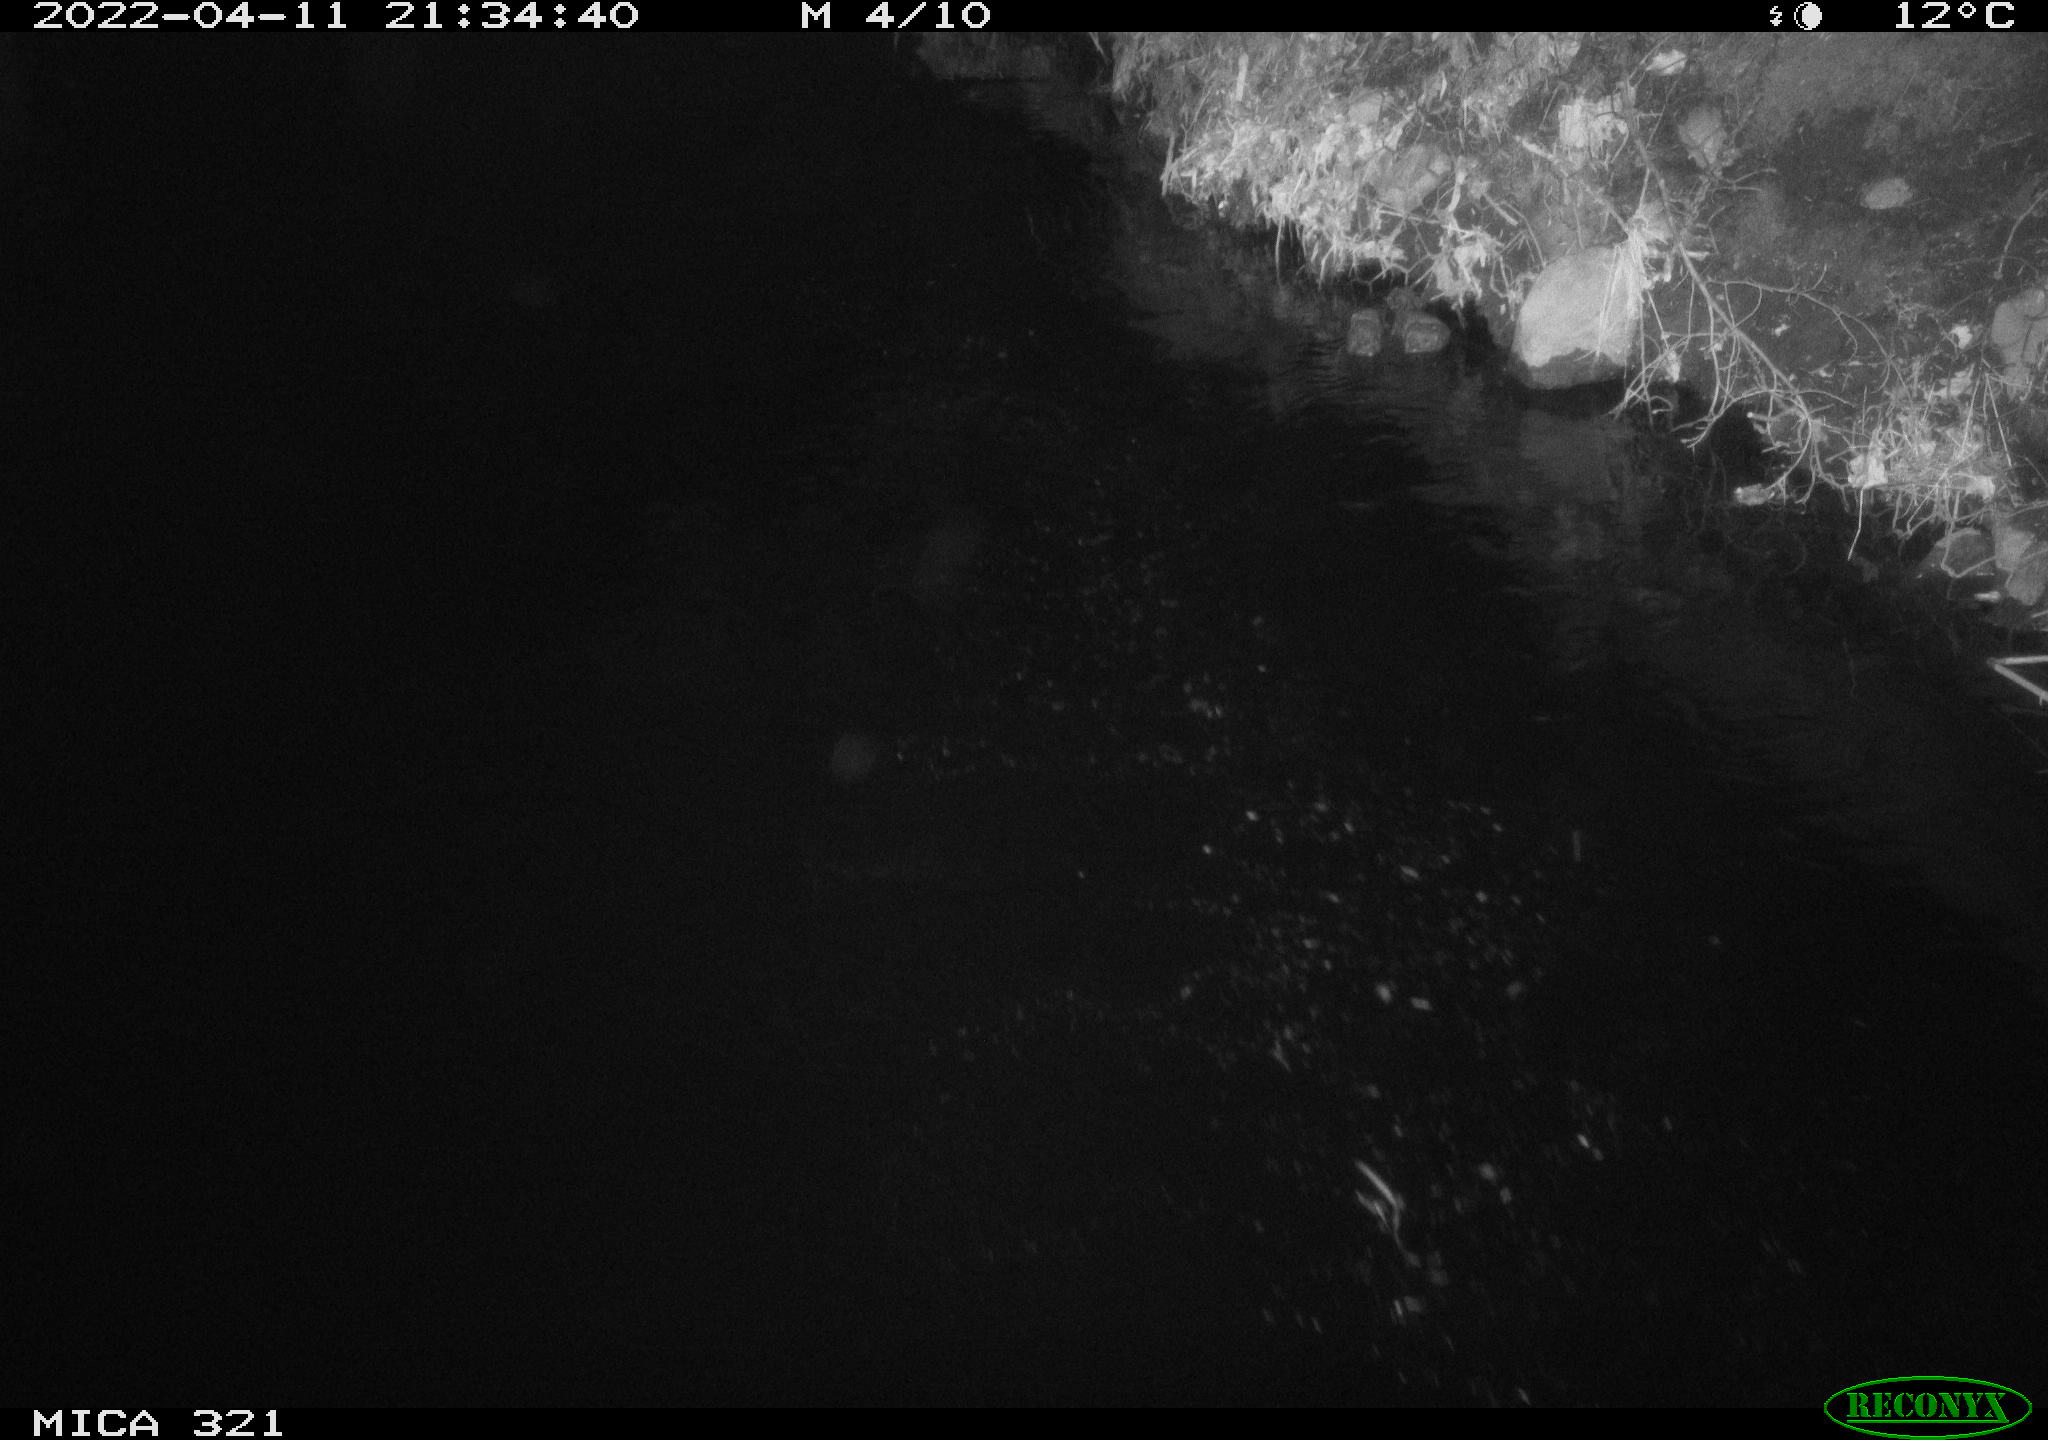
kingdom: Animalia
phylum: Chordata
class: Aves
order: Anseriformes
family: Anatidae
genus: Anas
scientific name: Anas platyrhynchos
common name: Mallard
